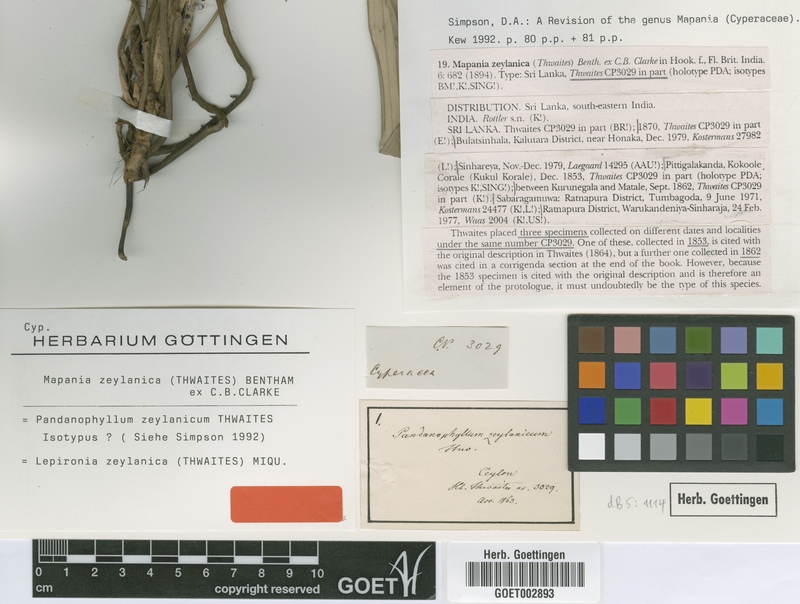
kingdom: Plantae
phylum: Tracheophyta
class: Liliopsida
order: Poales
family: Cyperaceae
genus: Mapania
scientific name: Mapania zeylanica
